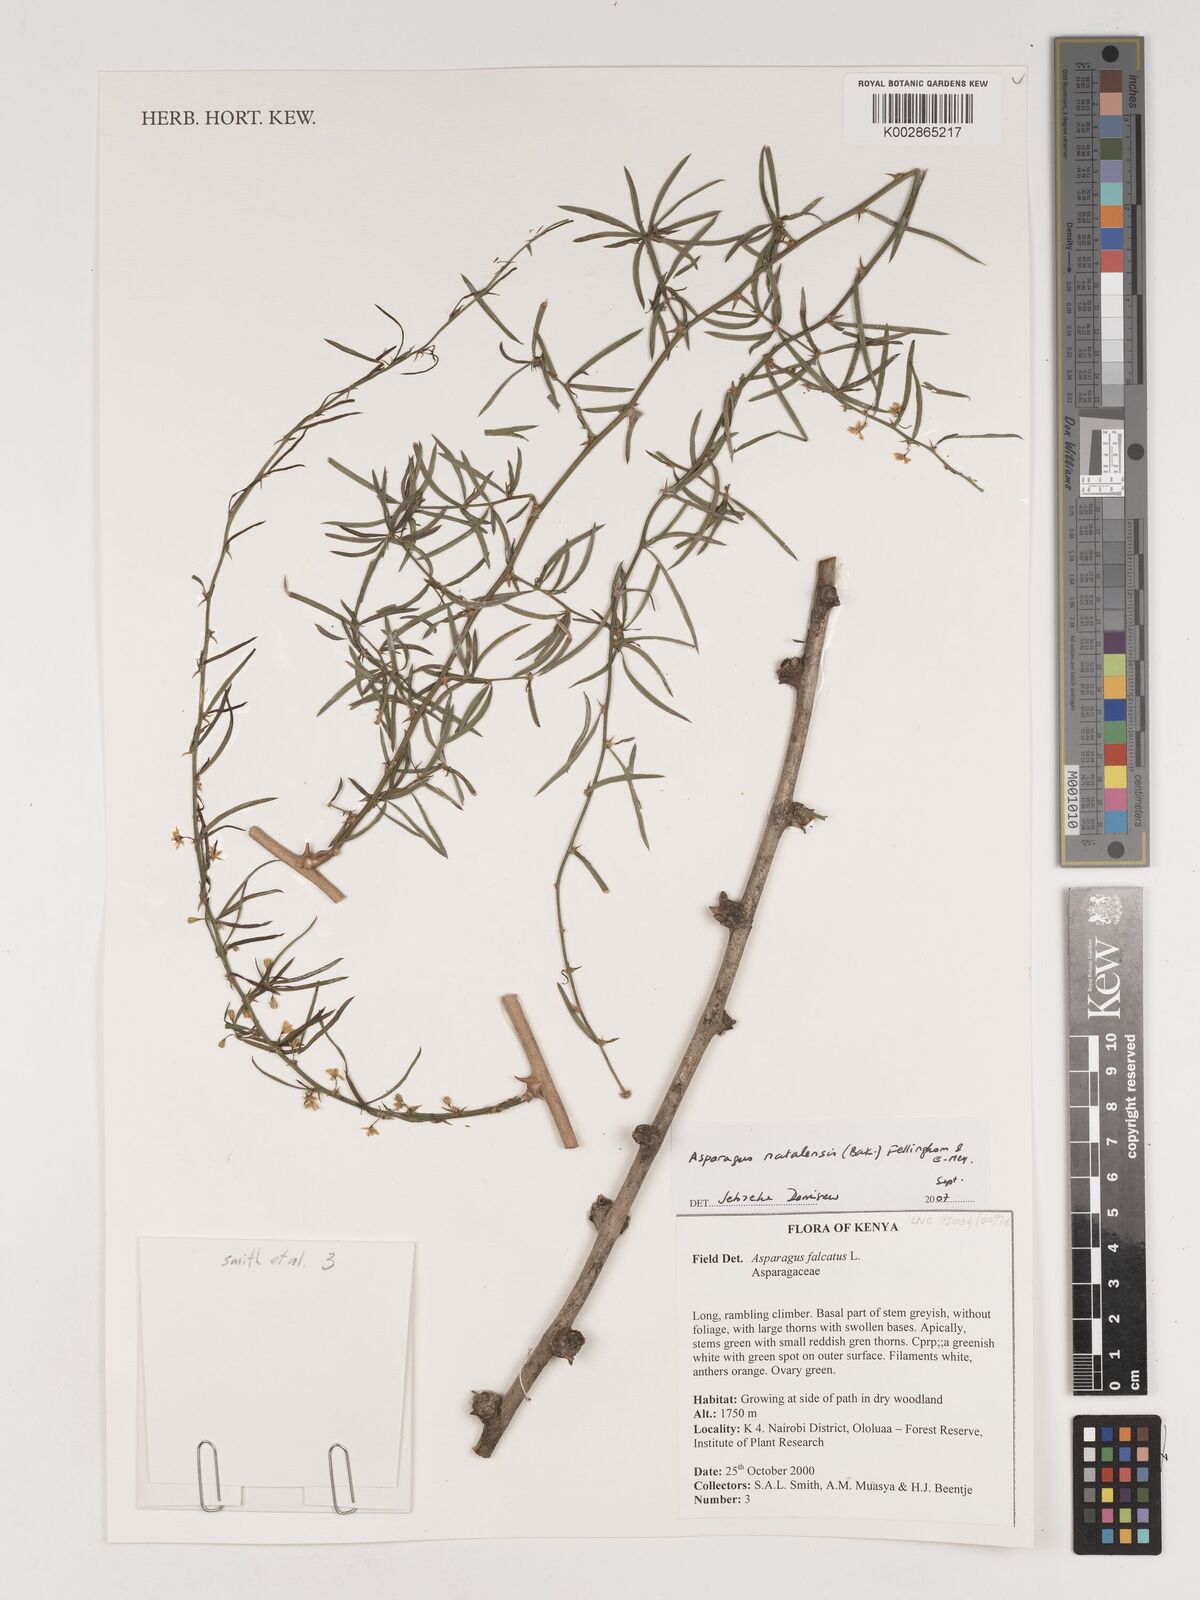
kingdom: Plantae
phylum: Tracheophyta
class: Liliopsida
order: Asparagales
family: Asparagaceae
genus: Asparagus
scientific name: Asparagus natalensis
